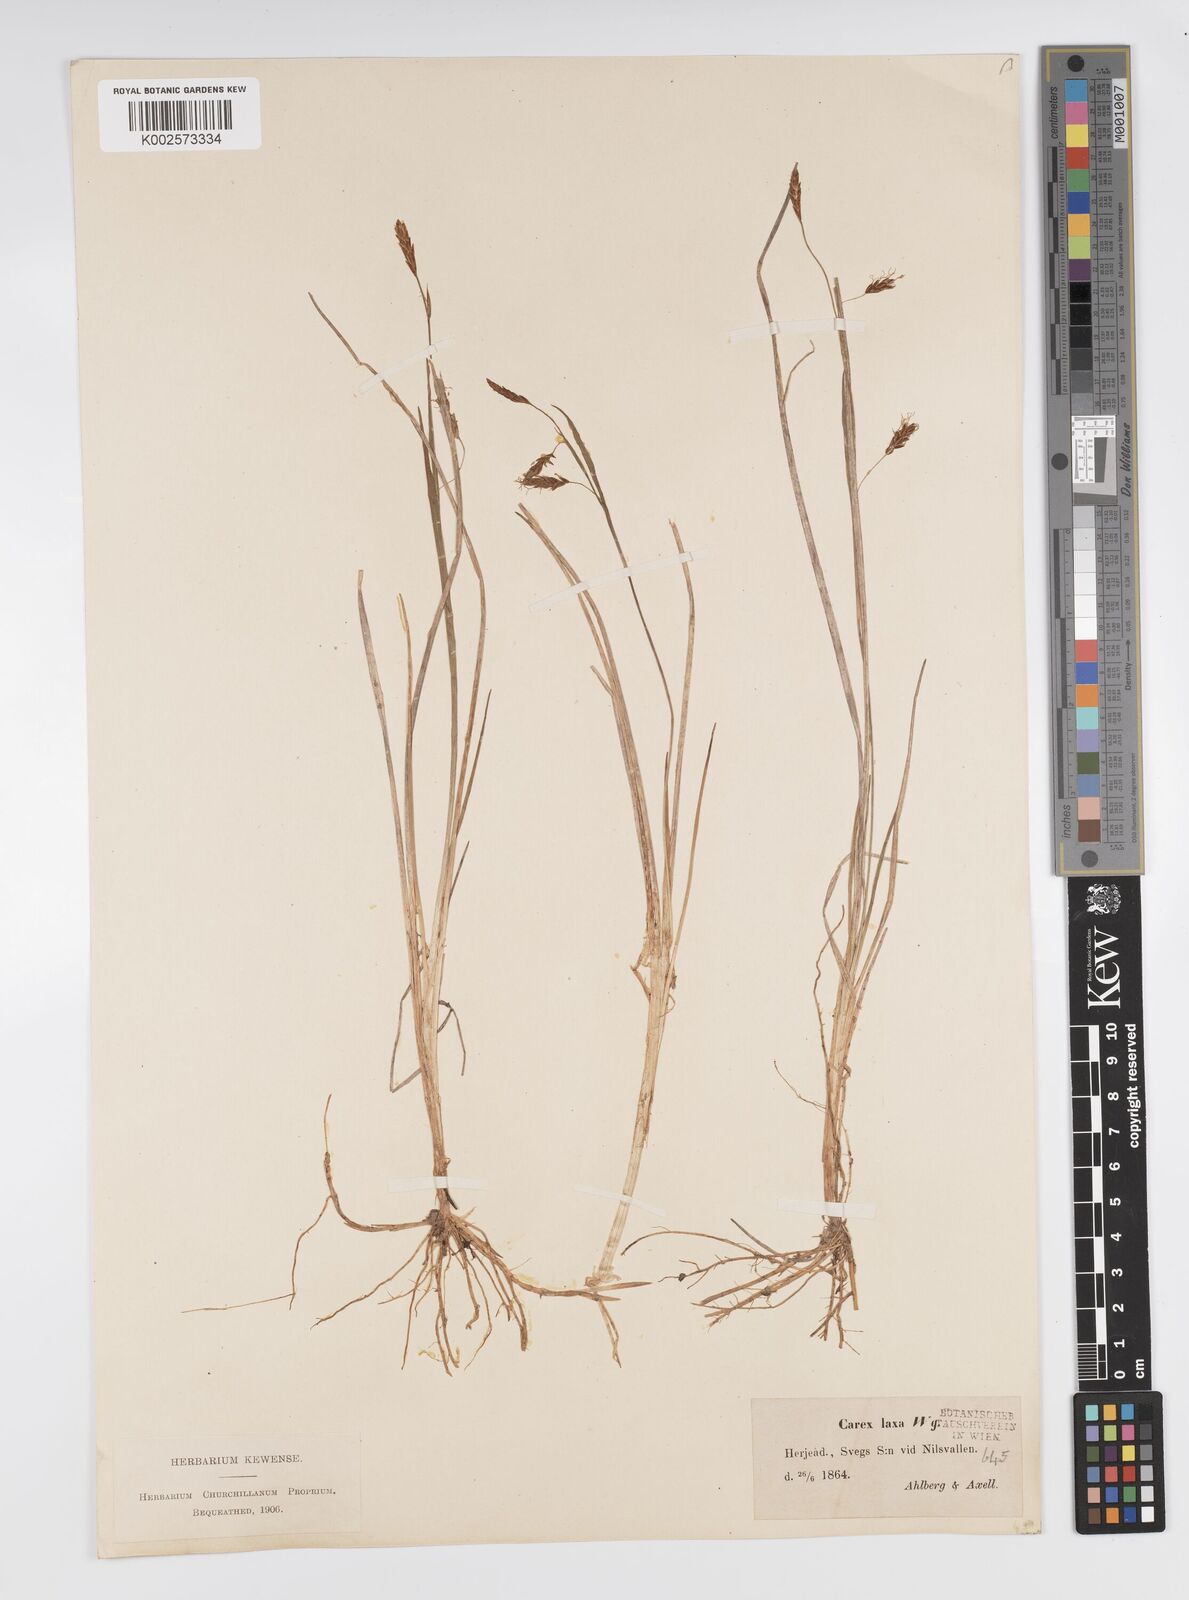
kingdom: Plantae
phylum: Tracheophyta
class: Liliopsida
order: Poales
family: Cyperaceae
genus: Carex
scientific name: Carex laxa
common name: Weak sedge
